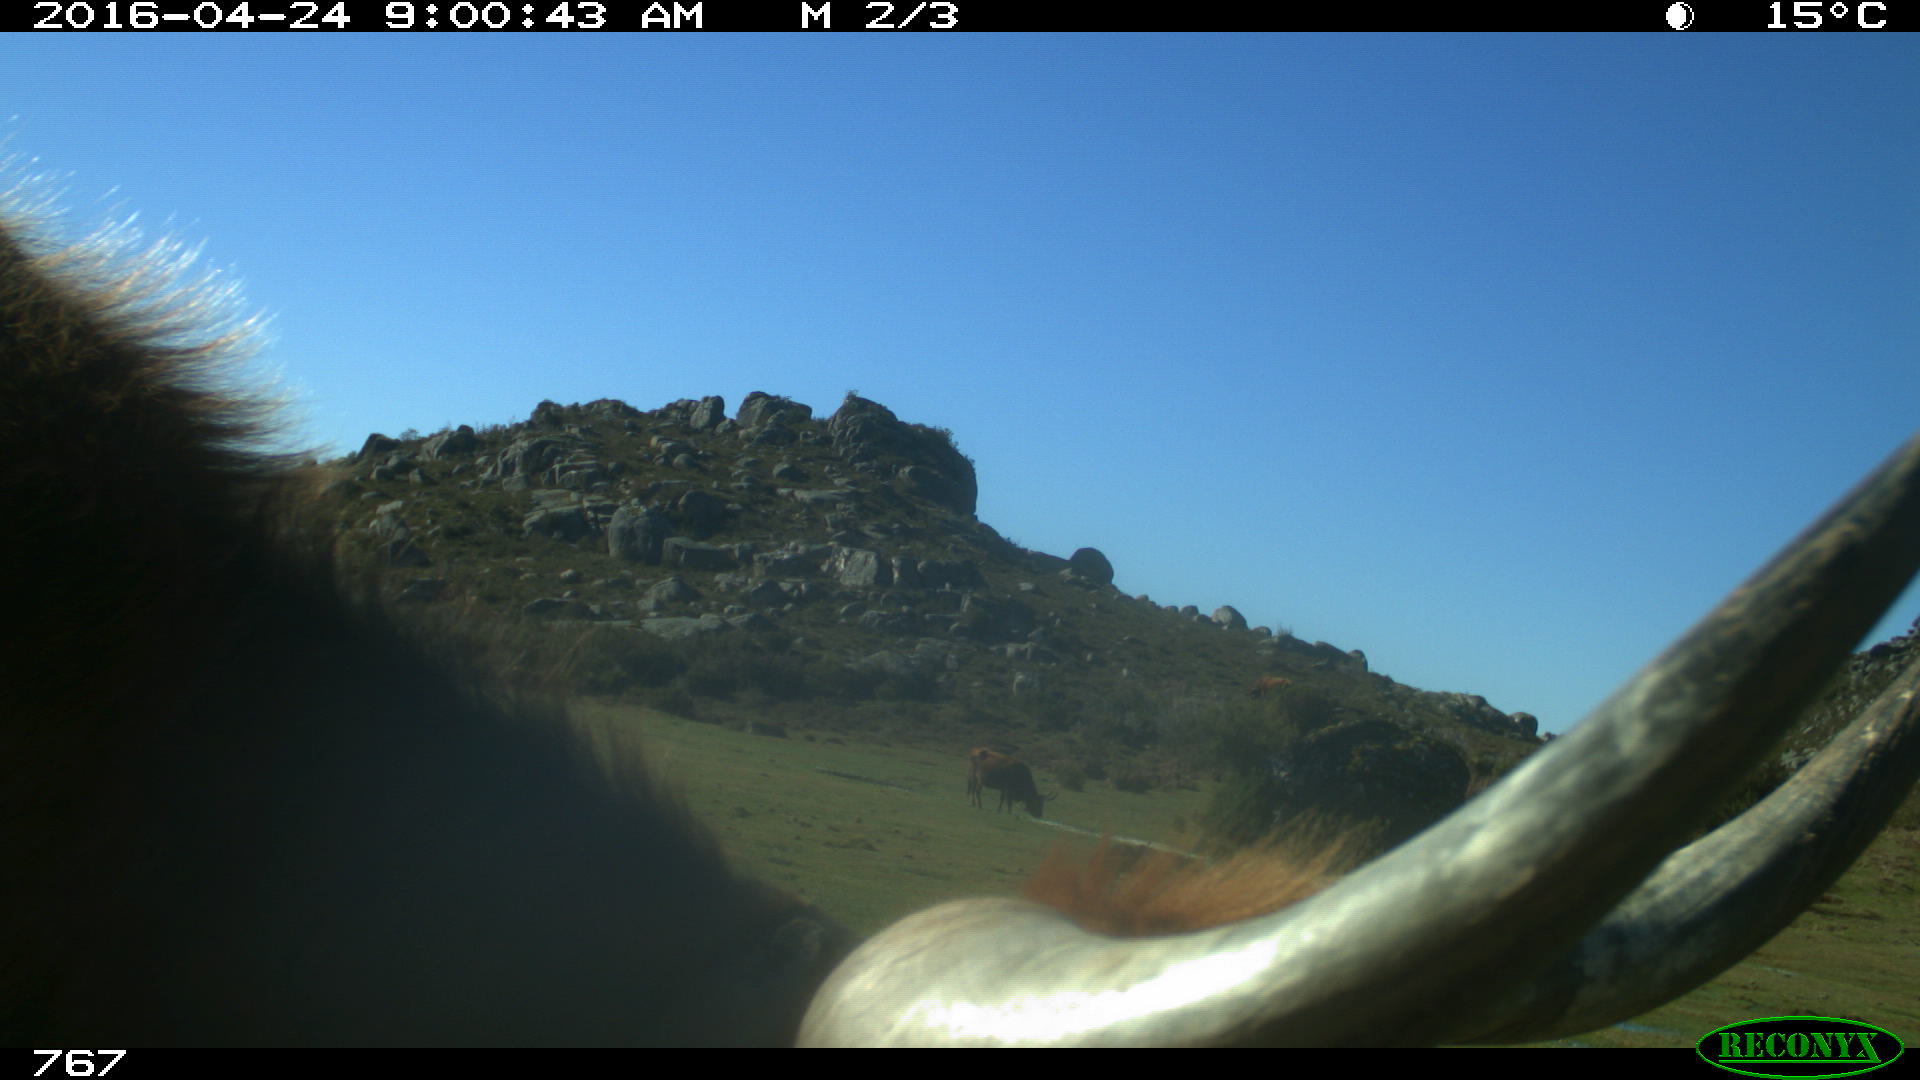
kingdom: Animalia
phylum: Chordata
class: Mammalia
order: Artiodactyla
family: Bovidae
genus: Bos
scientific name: Bos taurus
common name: Domesticated cattle
